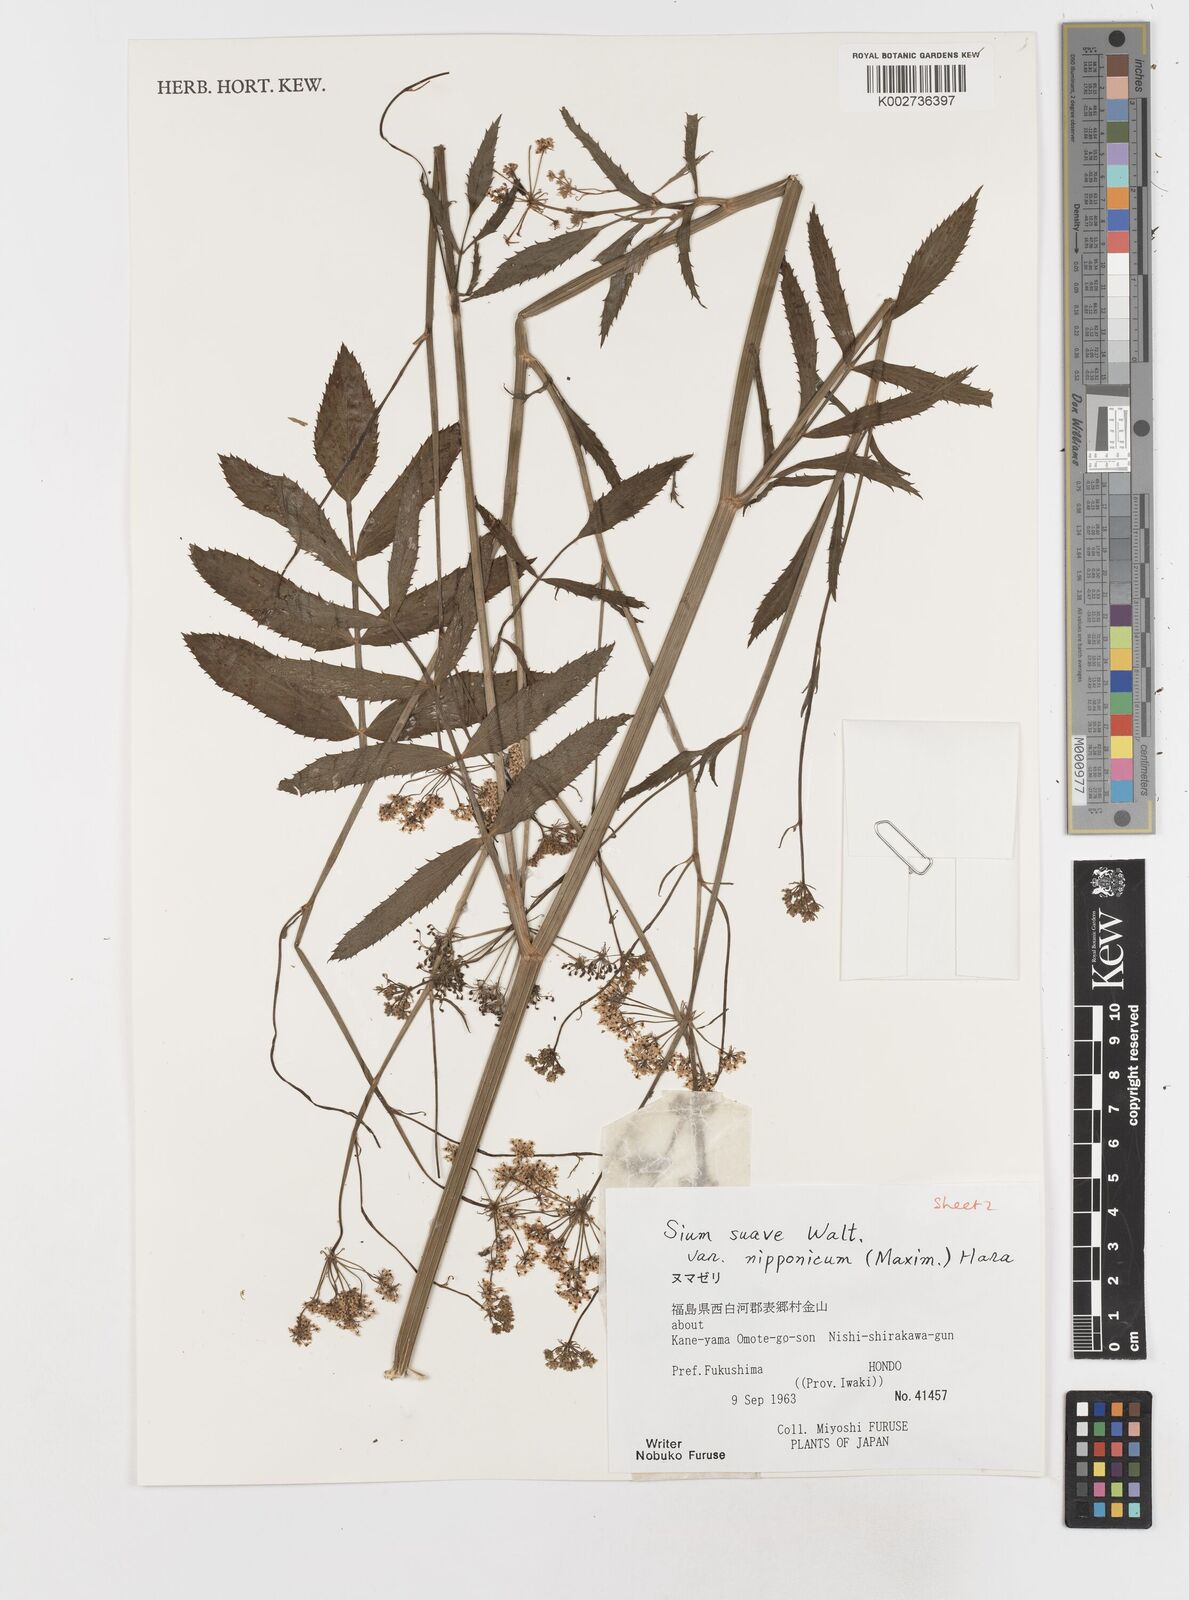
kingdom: Plantae
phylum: Tracheophyta
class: Magnoliopsida
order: Apiales
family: Apiaceae
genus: Sium
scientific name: Sium suave
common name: Hemlock water-parsnip
